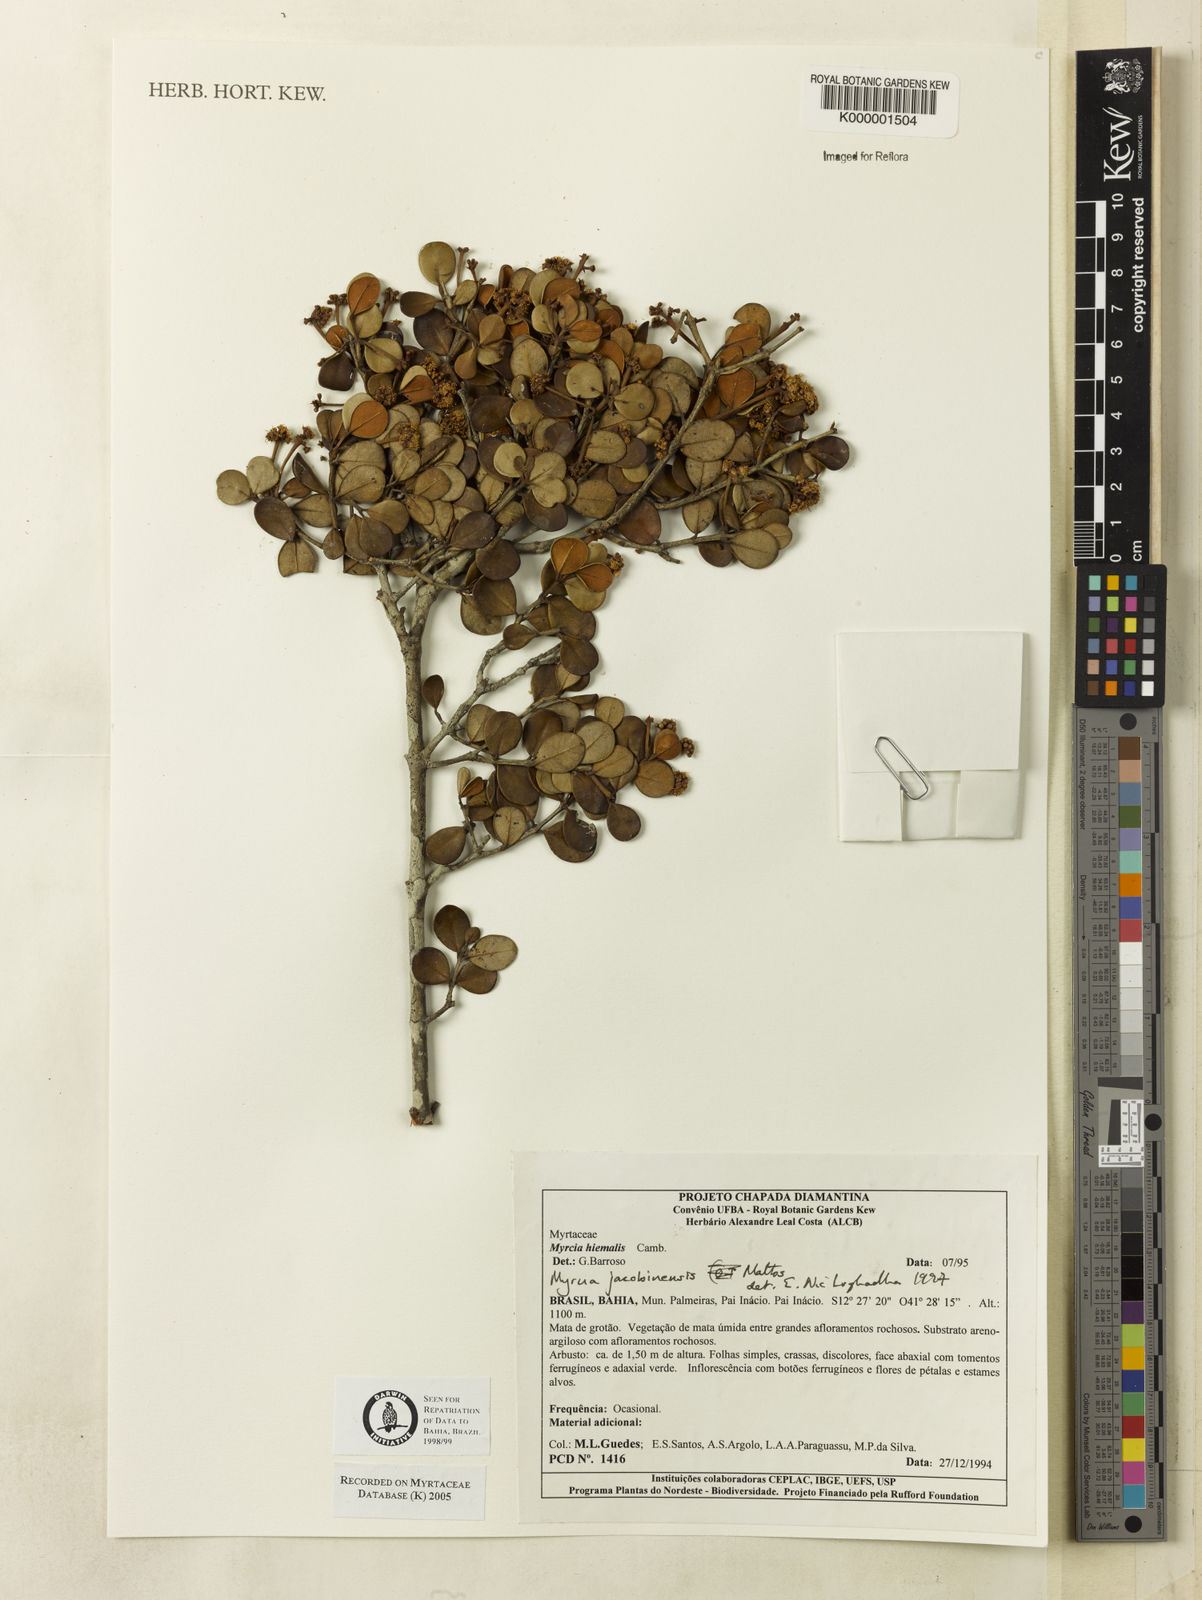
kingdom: Plantae
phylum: Tracheophyta
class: Magnoliopsida
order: Myrtales
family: Myrtaceae
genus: Myrcia
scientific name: Myrcia jacobinensis
